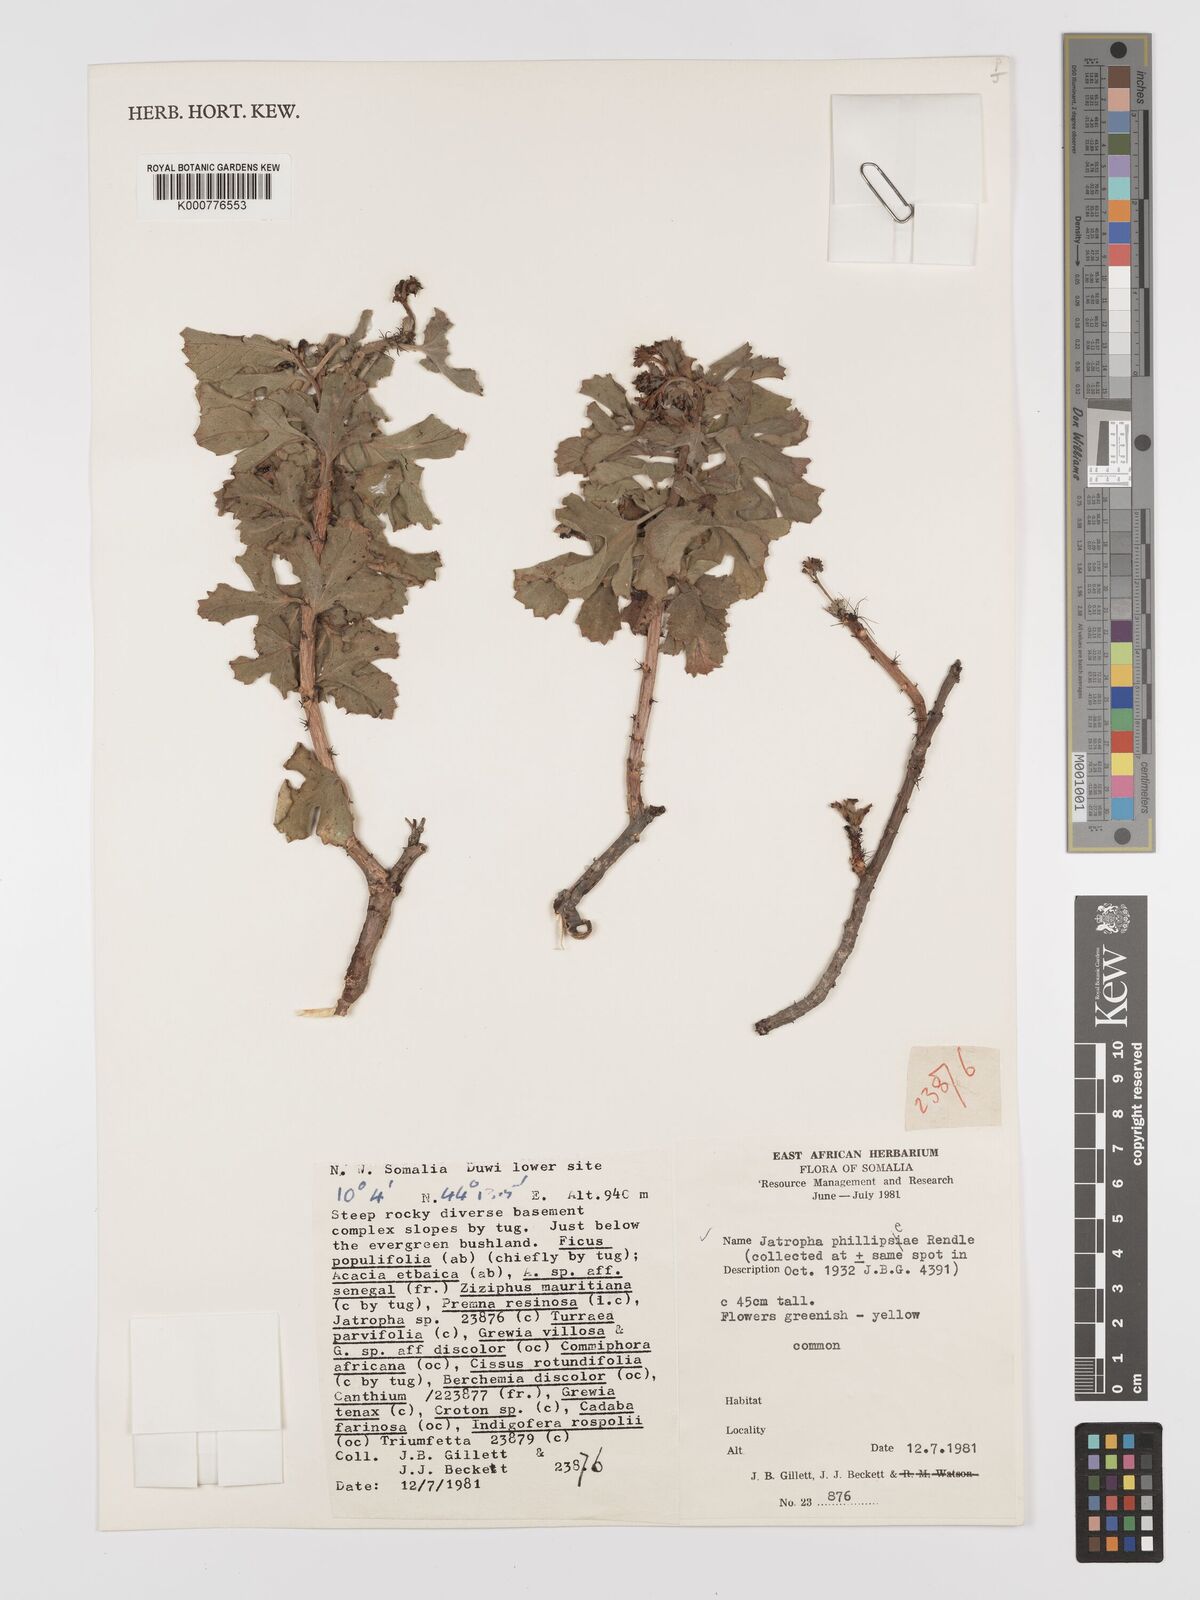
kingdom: Plantae
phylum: Tracheophyta
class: Magnoliopsida
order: Malpighiales
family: Euphorbiaceae
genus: Jatropha
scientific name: Jatropha phillipseae
